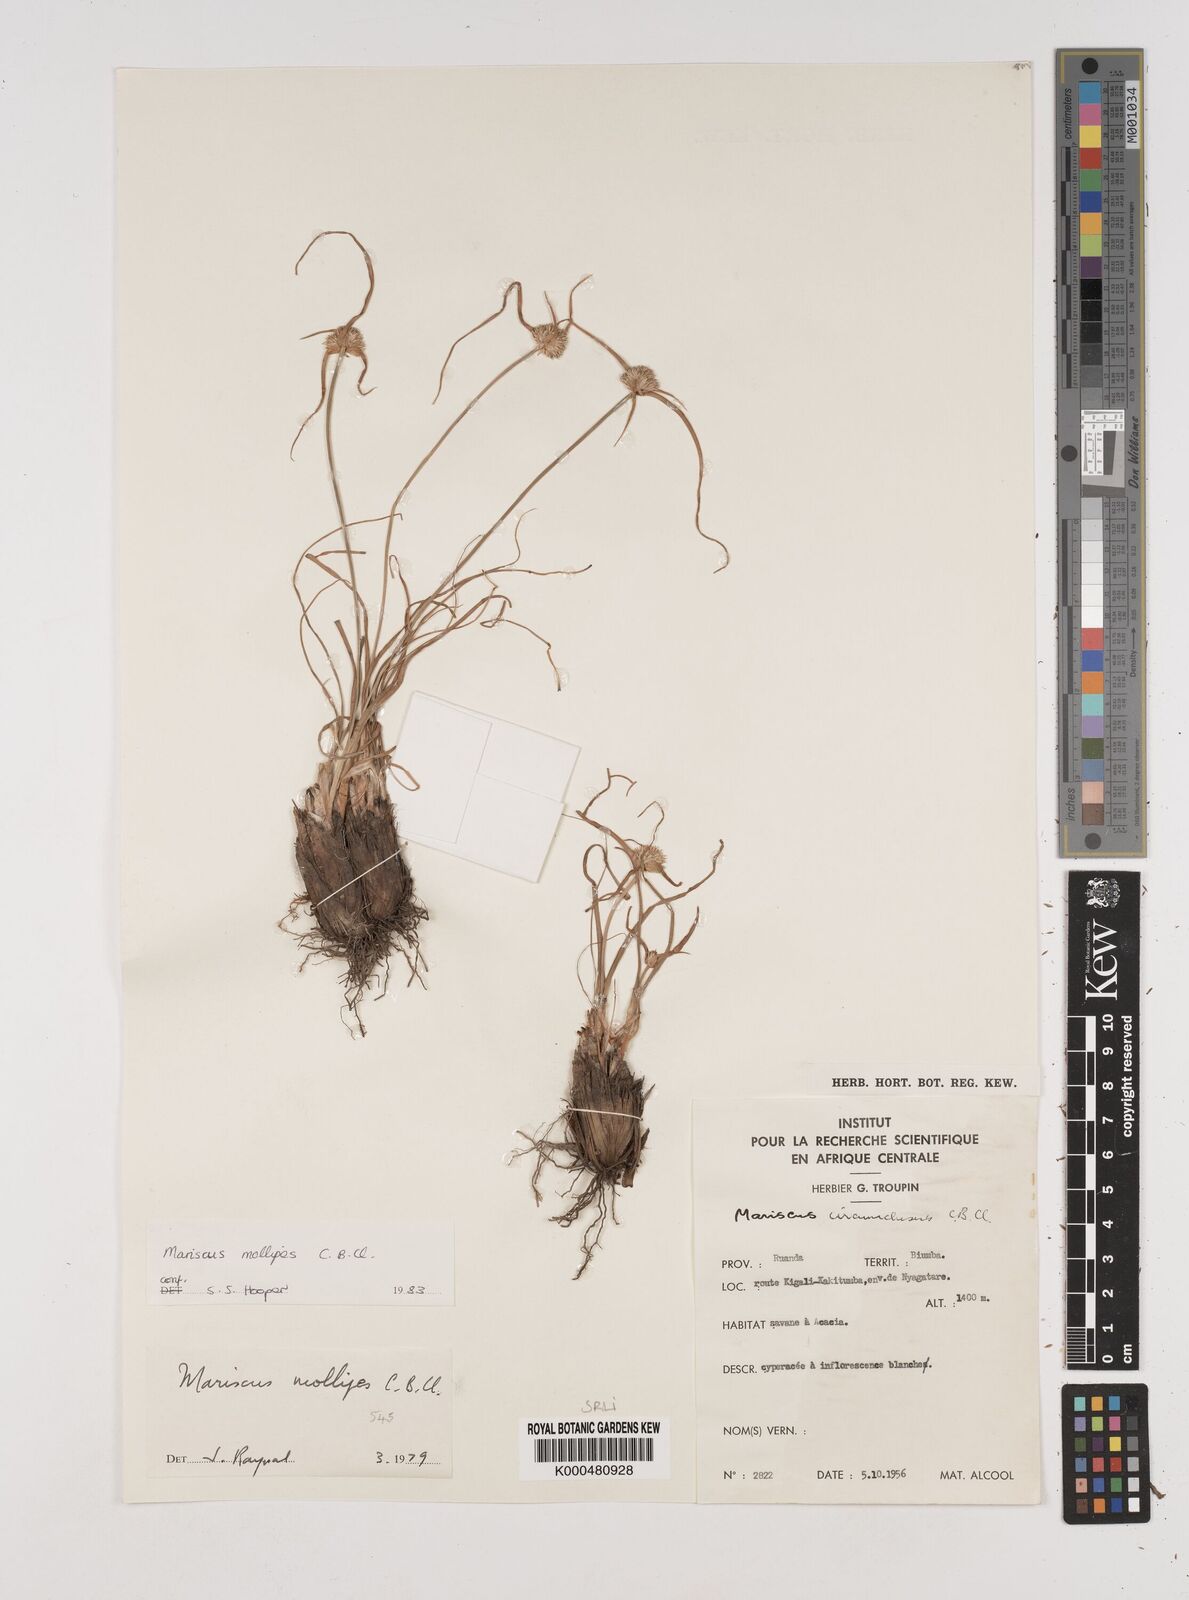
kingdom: Plantae
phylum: Tracheophyta
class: Liliopsida
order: Poales
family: Cyperaceae
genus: Cyperus
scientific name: Cyperus mollipes
